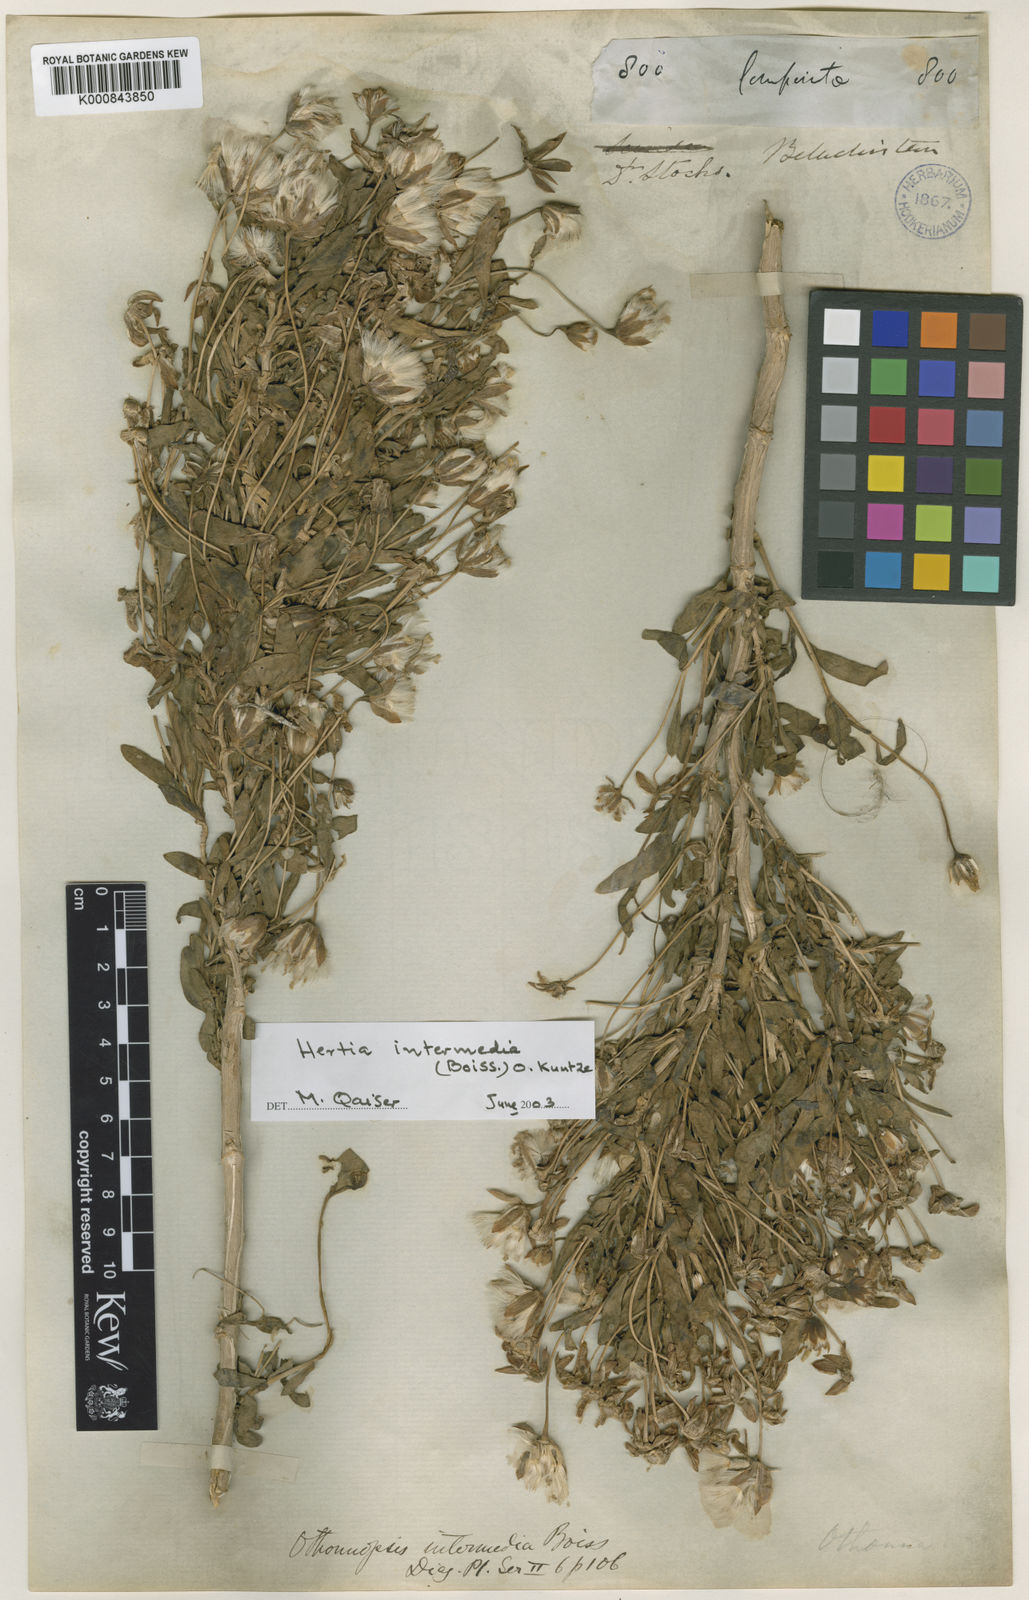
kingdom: Plantae
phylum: Tracheophyta
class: Magnoliopsida
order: Asterales
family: Asteraceae
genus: Hertia
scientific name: Hertia intermedia
